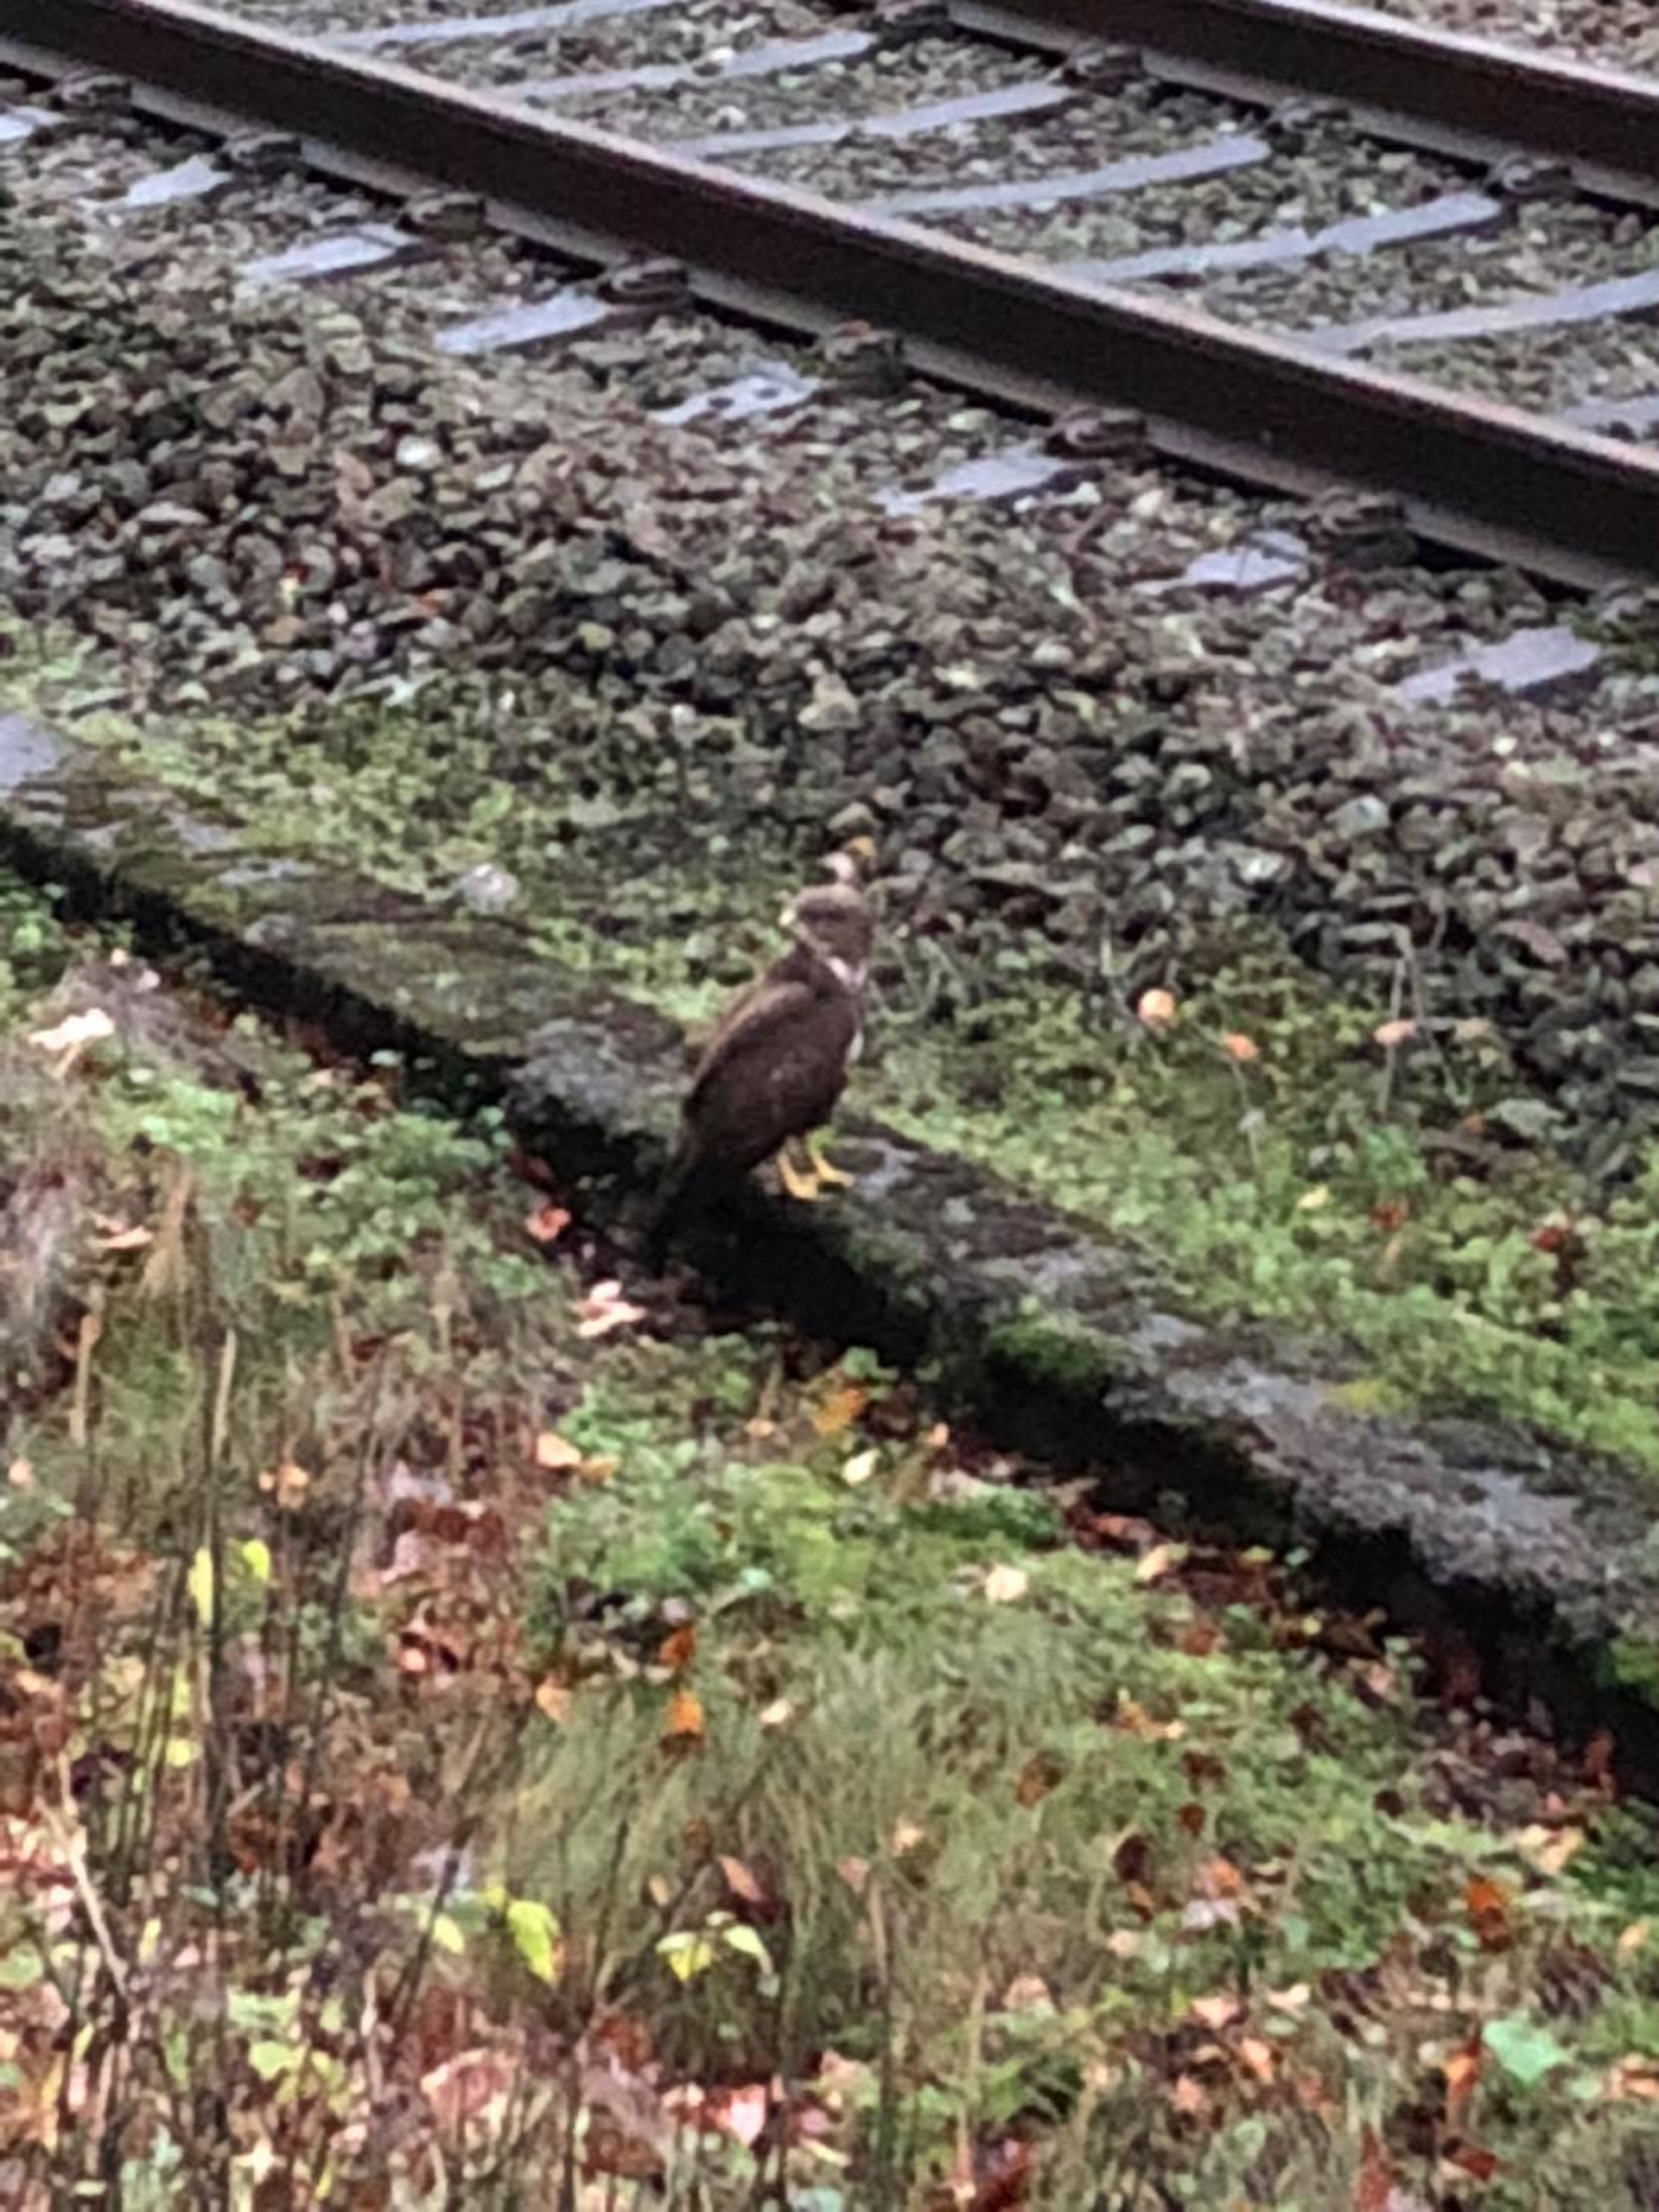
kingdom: Animalia
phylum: Chordata
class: Aves
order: Accipitriformes
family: Accipitridae
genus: Buteo
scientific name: Buteo buteo
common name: Musvåge
